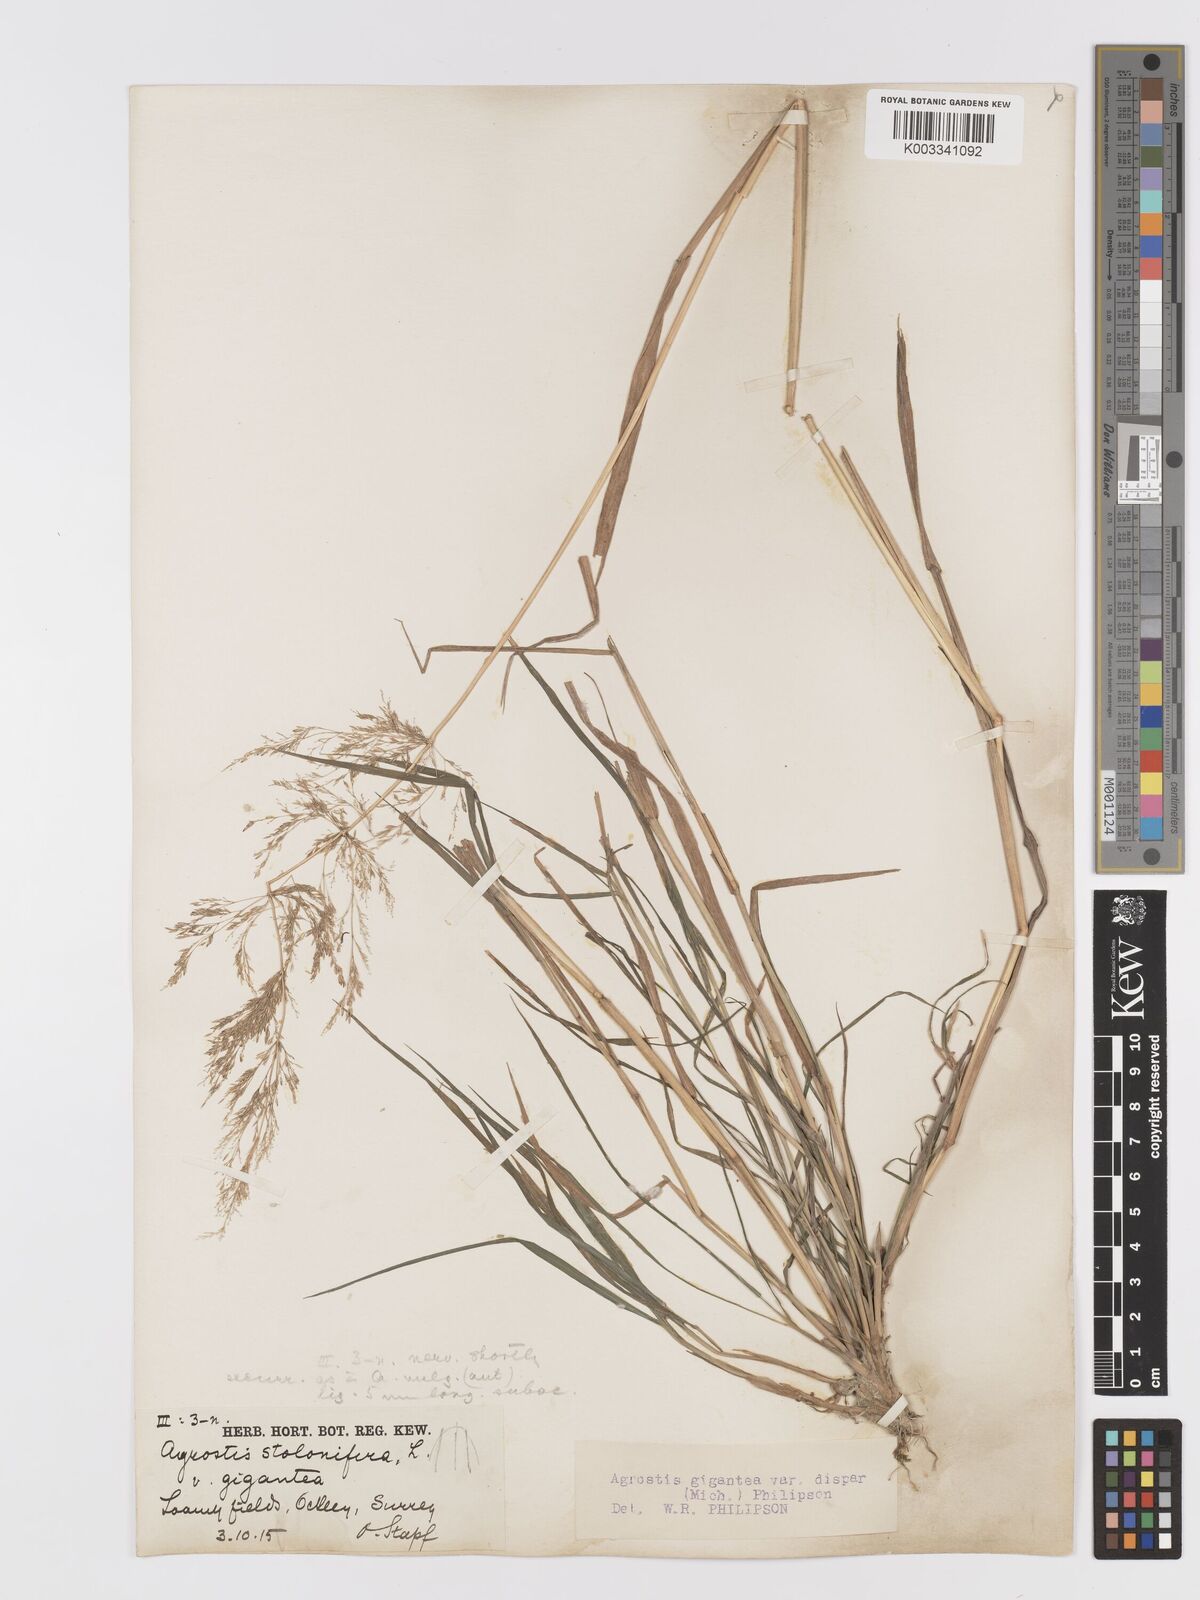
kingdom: Plantae
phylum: Tracheophyta
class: Liliopsida
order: Poales
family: Poaceae
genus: Agrostis
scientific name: Agrostis gigantea
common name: Black bent
